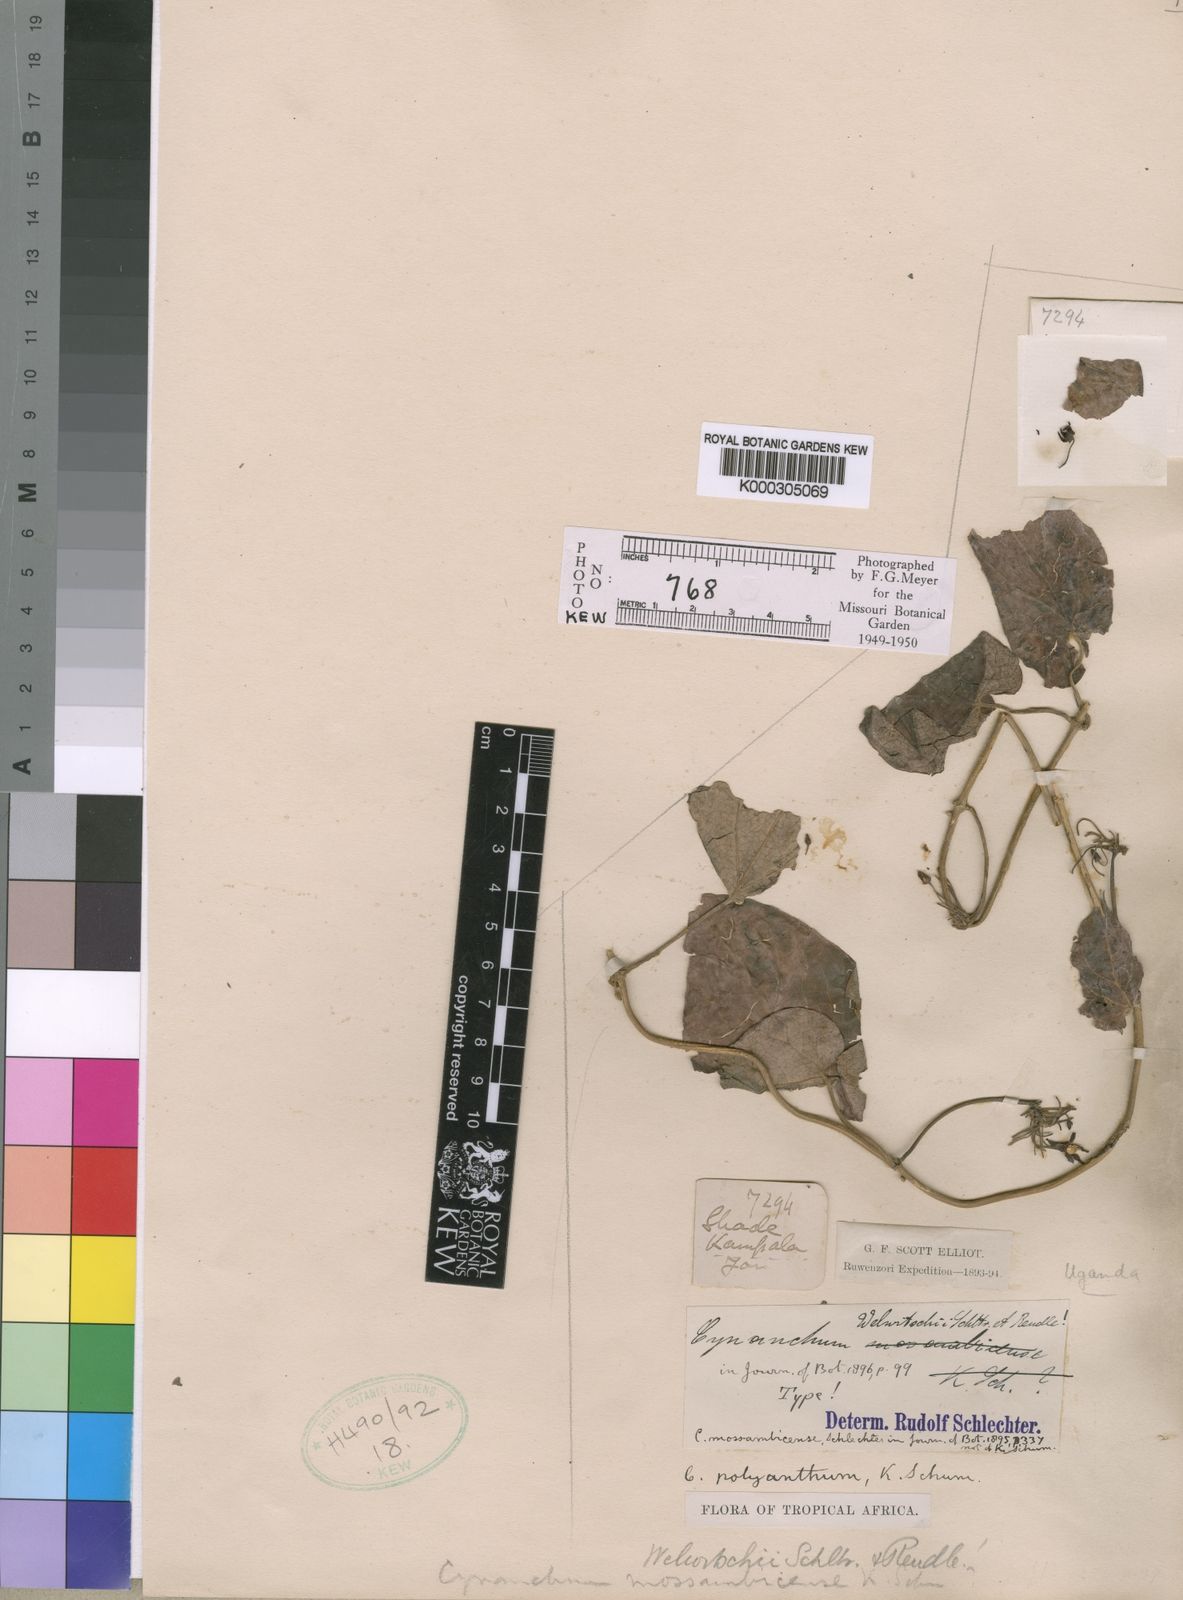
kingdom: Plantae
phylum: Tracheophyta
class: Magnoliopsida
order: Gentianales
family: Apocynaceae
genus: Cynanchum
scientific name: Cynanchum polyanthum
